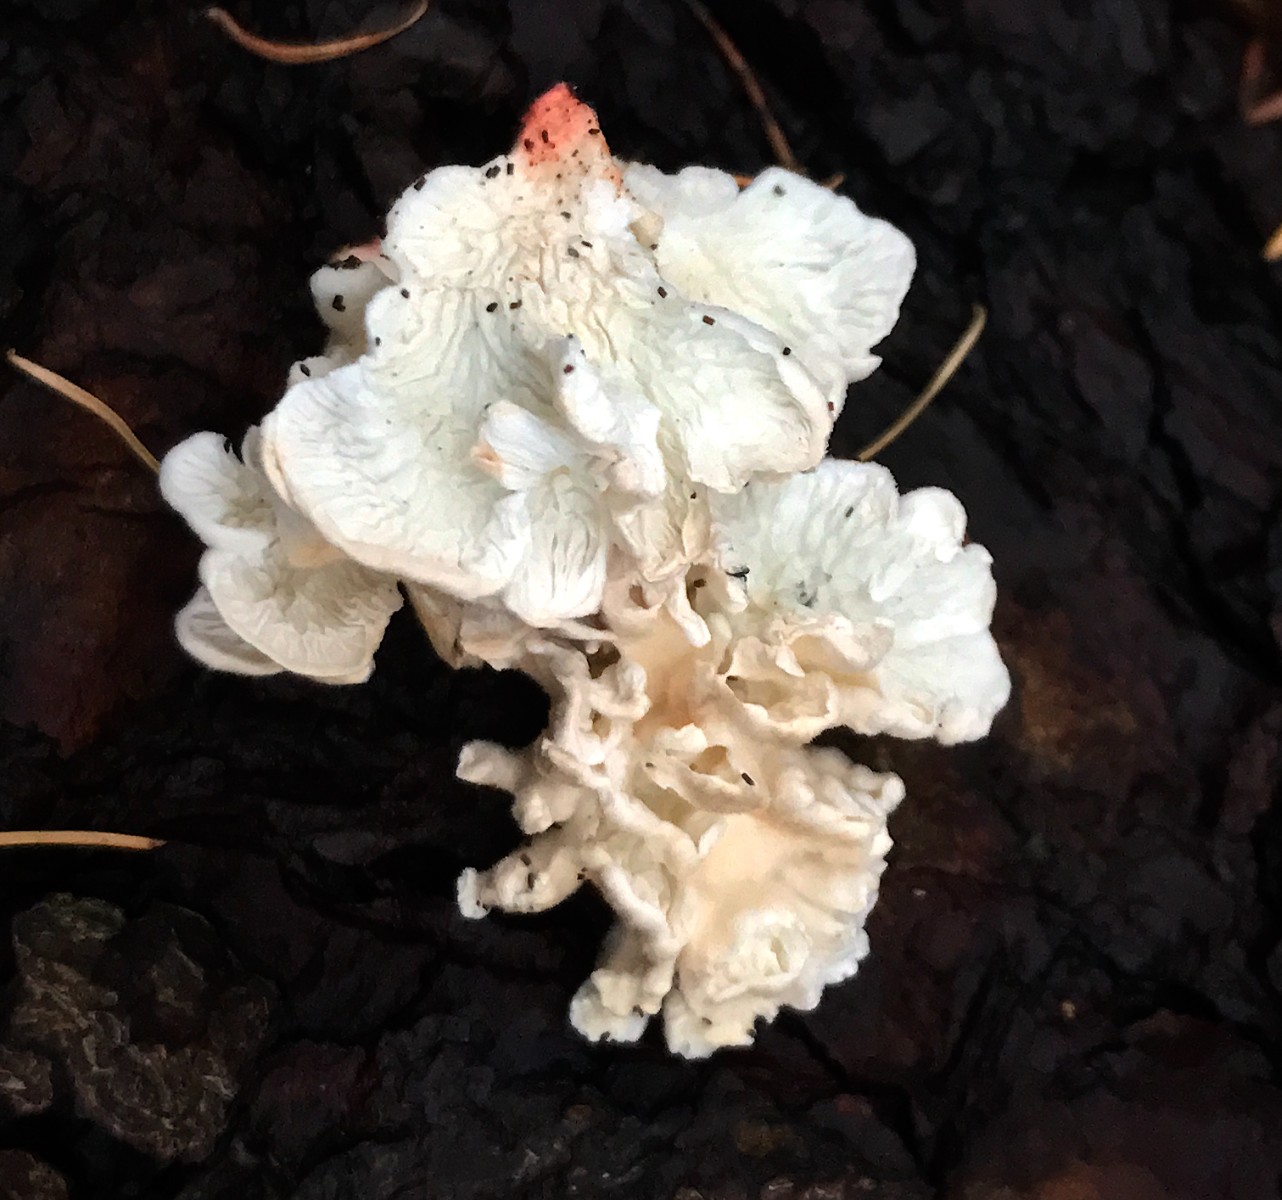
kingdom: Fungi
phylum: Basidiomycota
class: Agaricomycetes
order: Amylocorticiales
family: Amylocorticiaceae
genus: Plicaturopsis
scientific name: Plicaturopsis crispa
